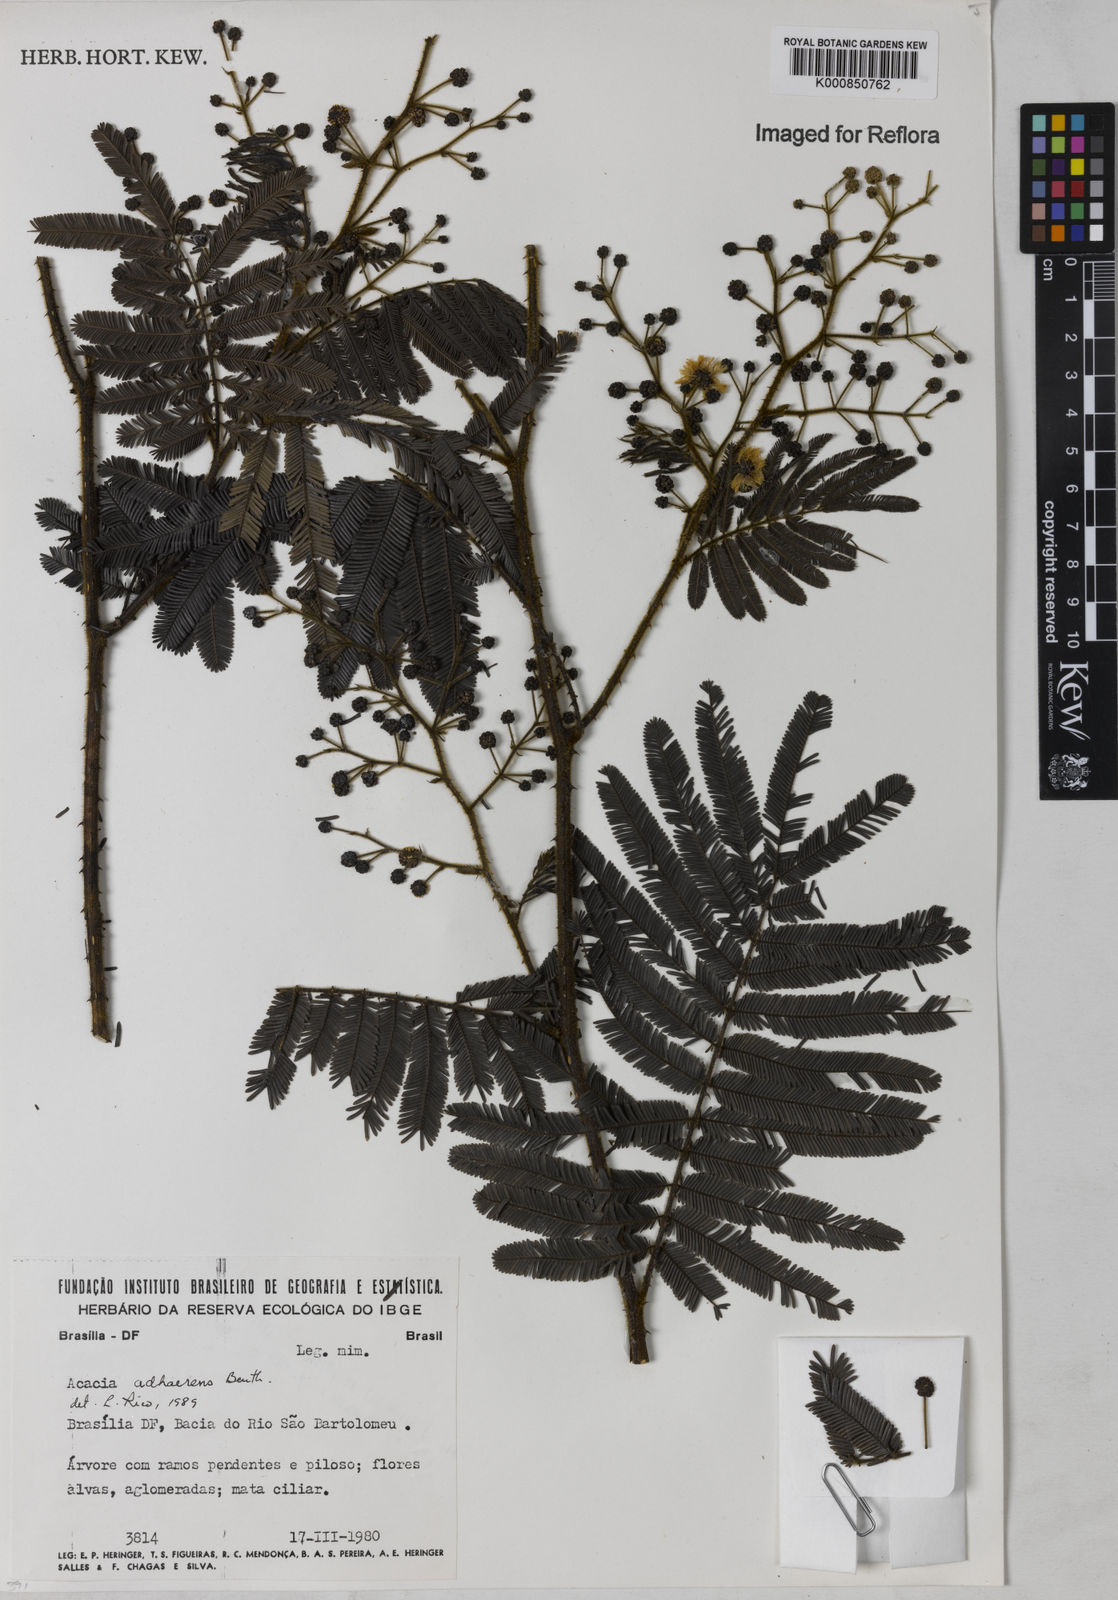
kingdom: Plantae
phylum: Tracheophyta
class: Magnoliopsida
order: Fabales
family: Fabaceae
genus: Senegalia
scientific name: Senegalia martiusiana
